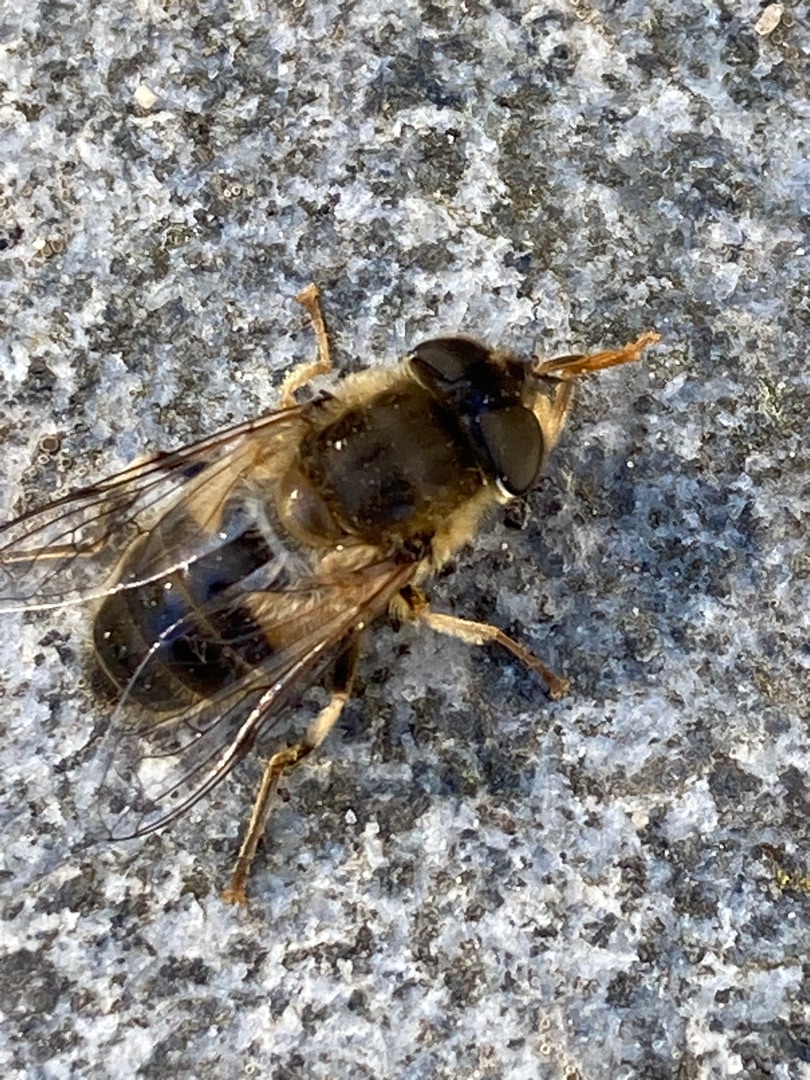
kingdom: Animalia
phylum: Arthropoda
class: Insecta
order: Diptera
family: Syrphidae
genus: Eristalis
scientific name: Eristalis pertinax
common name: Gulfodet dyndflue
